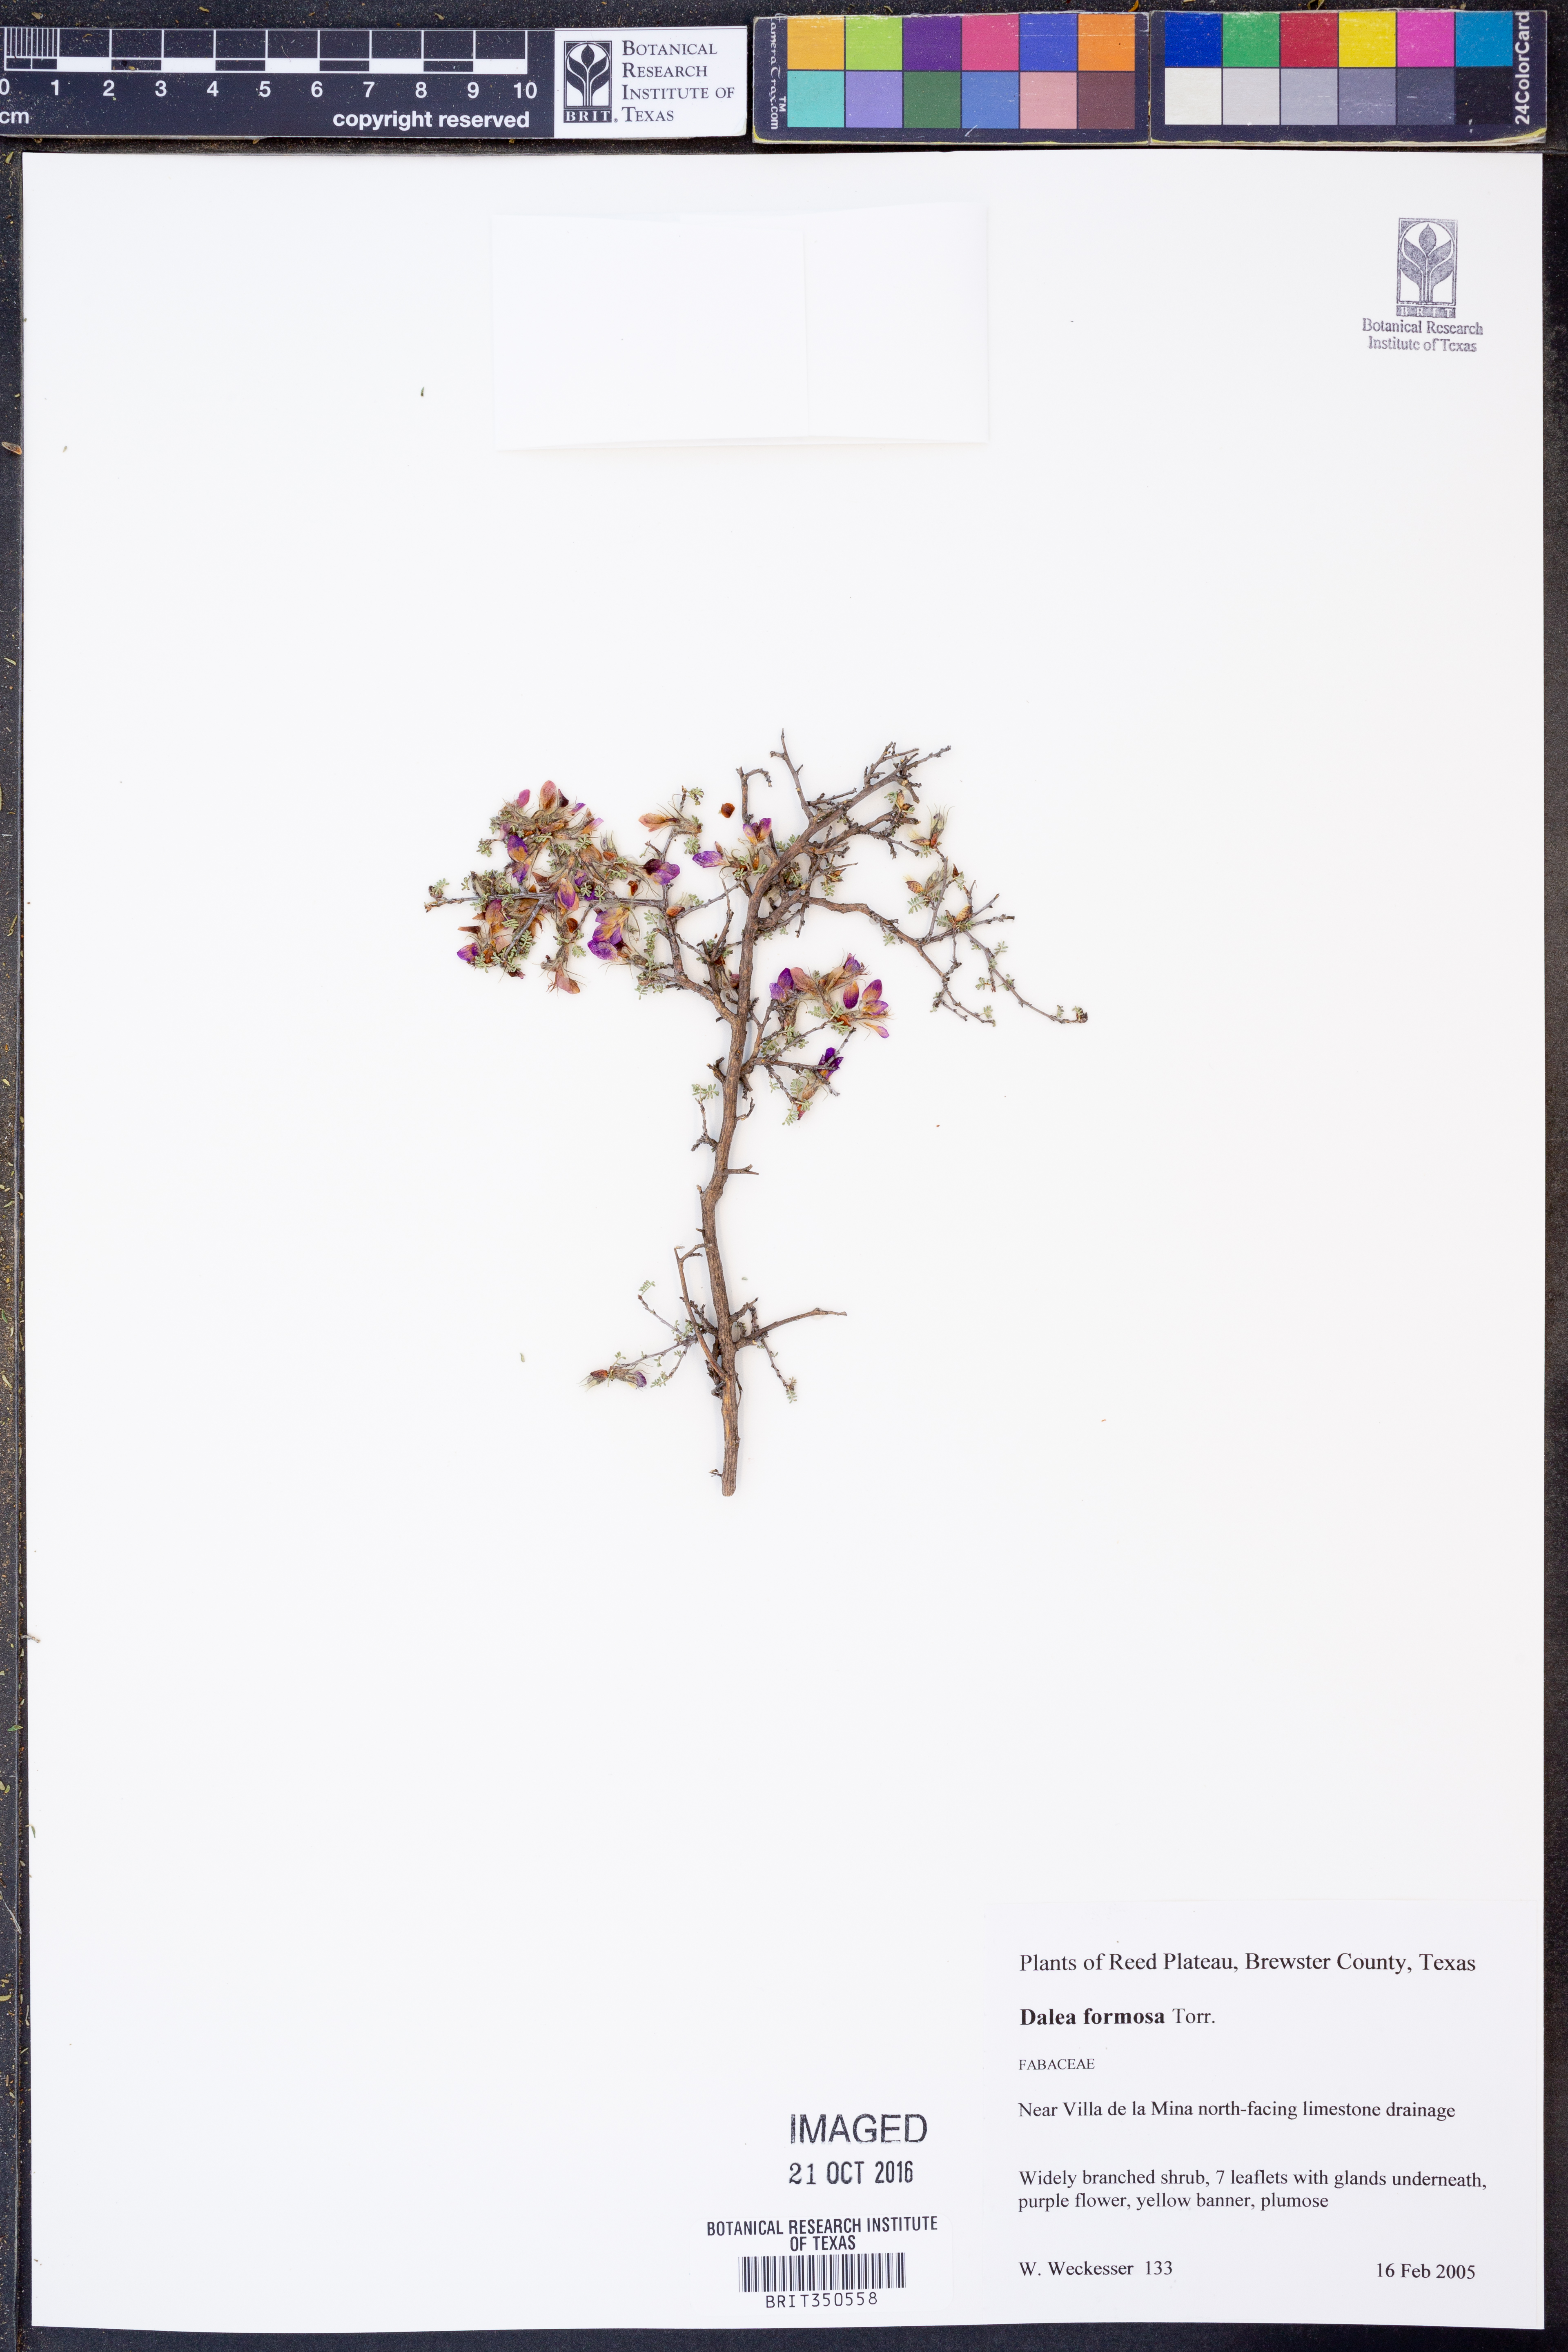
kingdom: Plantae
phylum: Tracheophyta
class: Magnoliopsida
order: Fabales
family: Fabaceae
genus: Dalea
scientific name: Dalea formosa
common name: Feather-plume dalea
